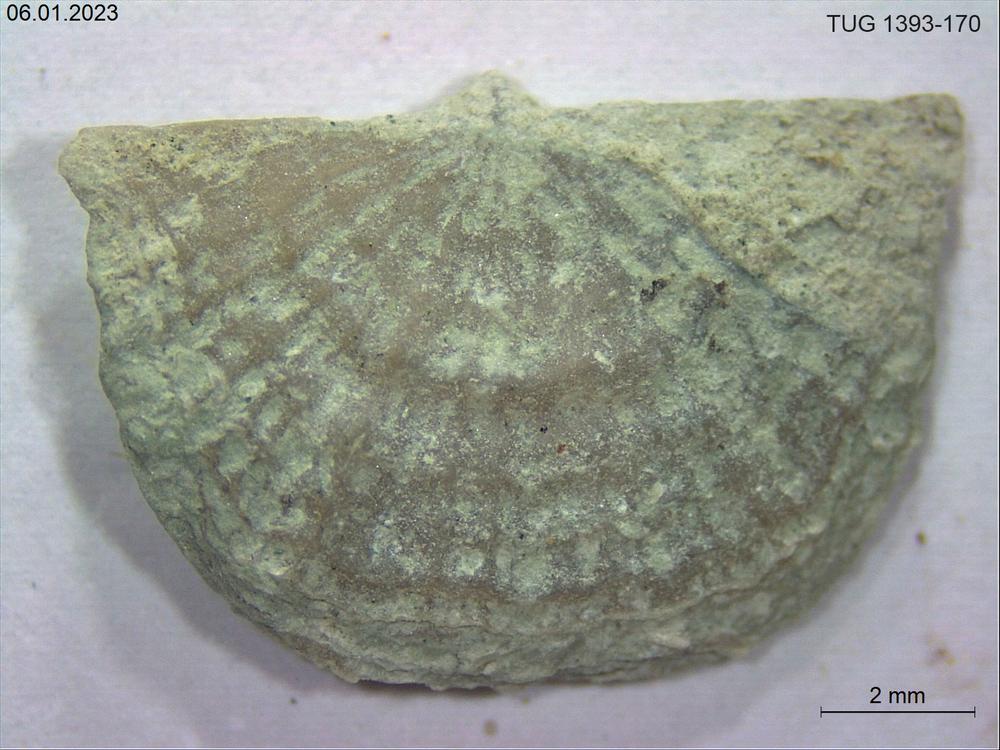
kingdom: Animalia
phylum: Brachiopoda
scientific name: Brachiopoda
